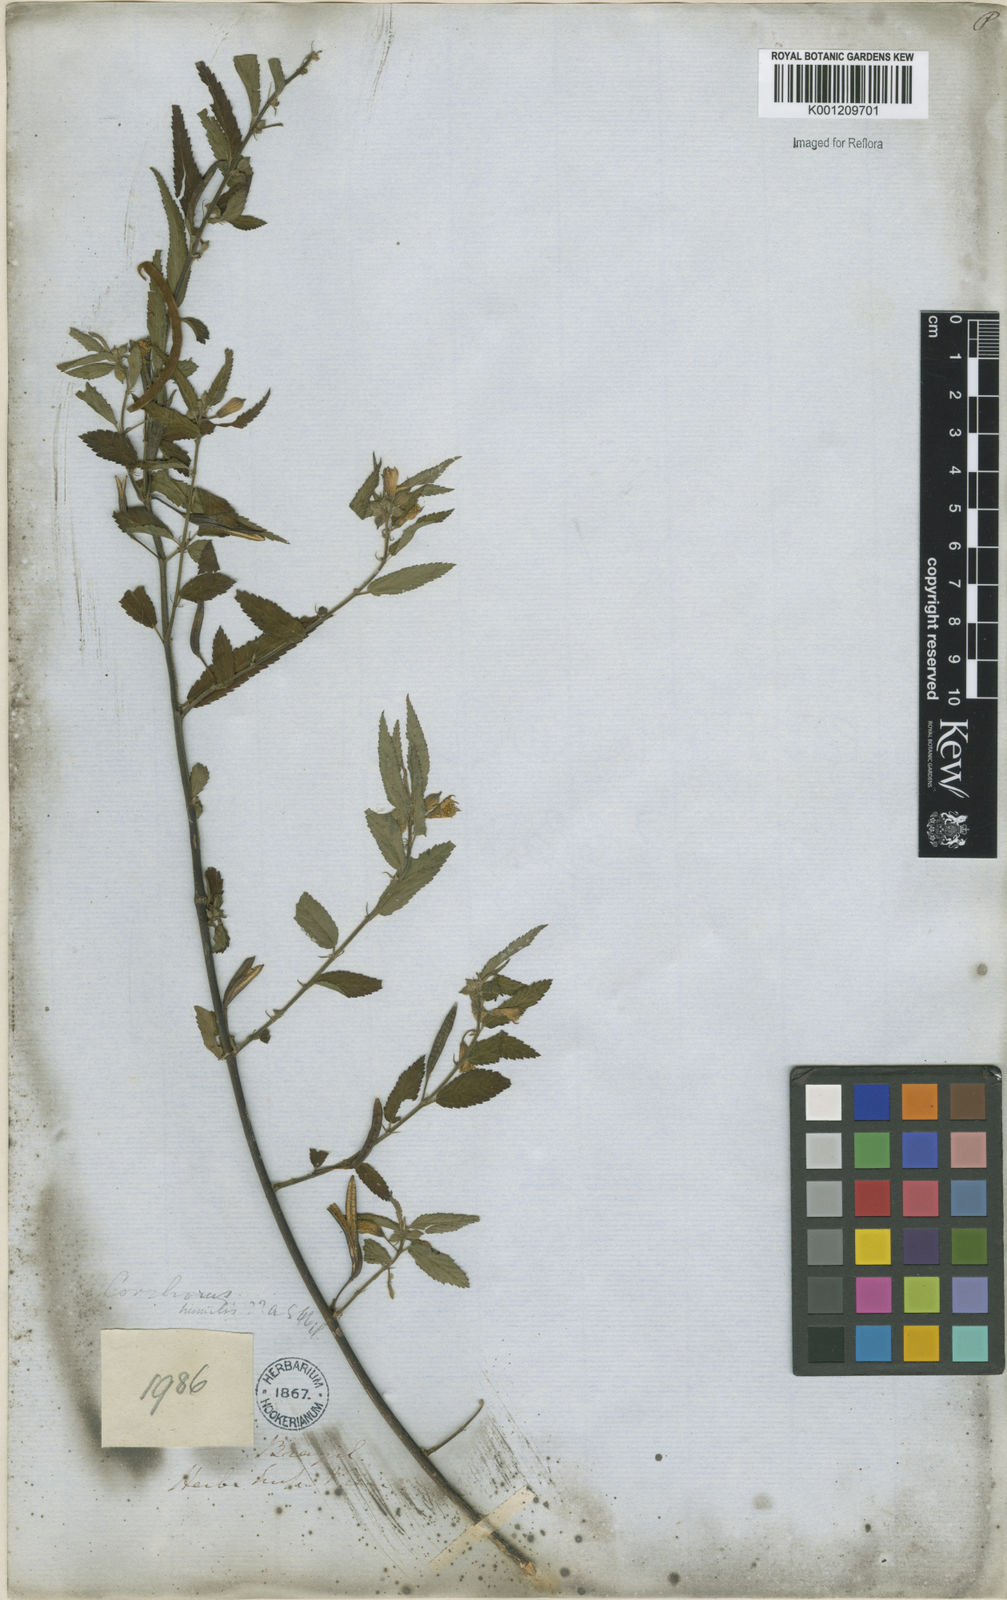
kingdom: Plantae
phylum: Tracheophyta
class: Magnoliopsida
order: Malvales
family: Malvaceae
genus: Corchorus
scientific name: Corchorus
